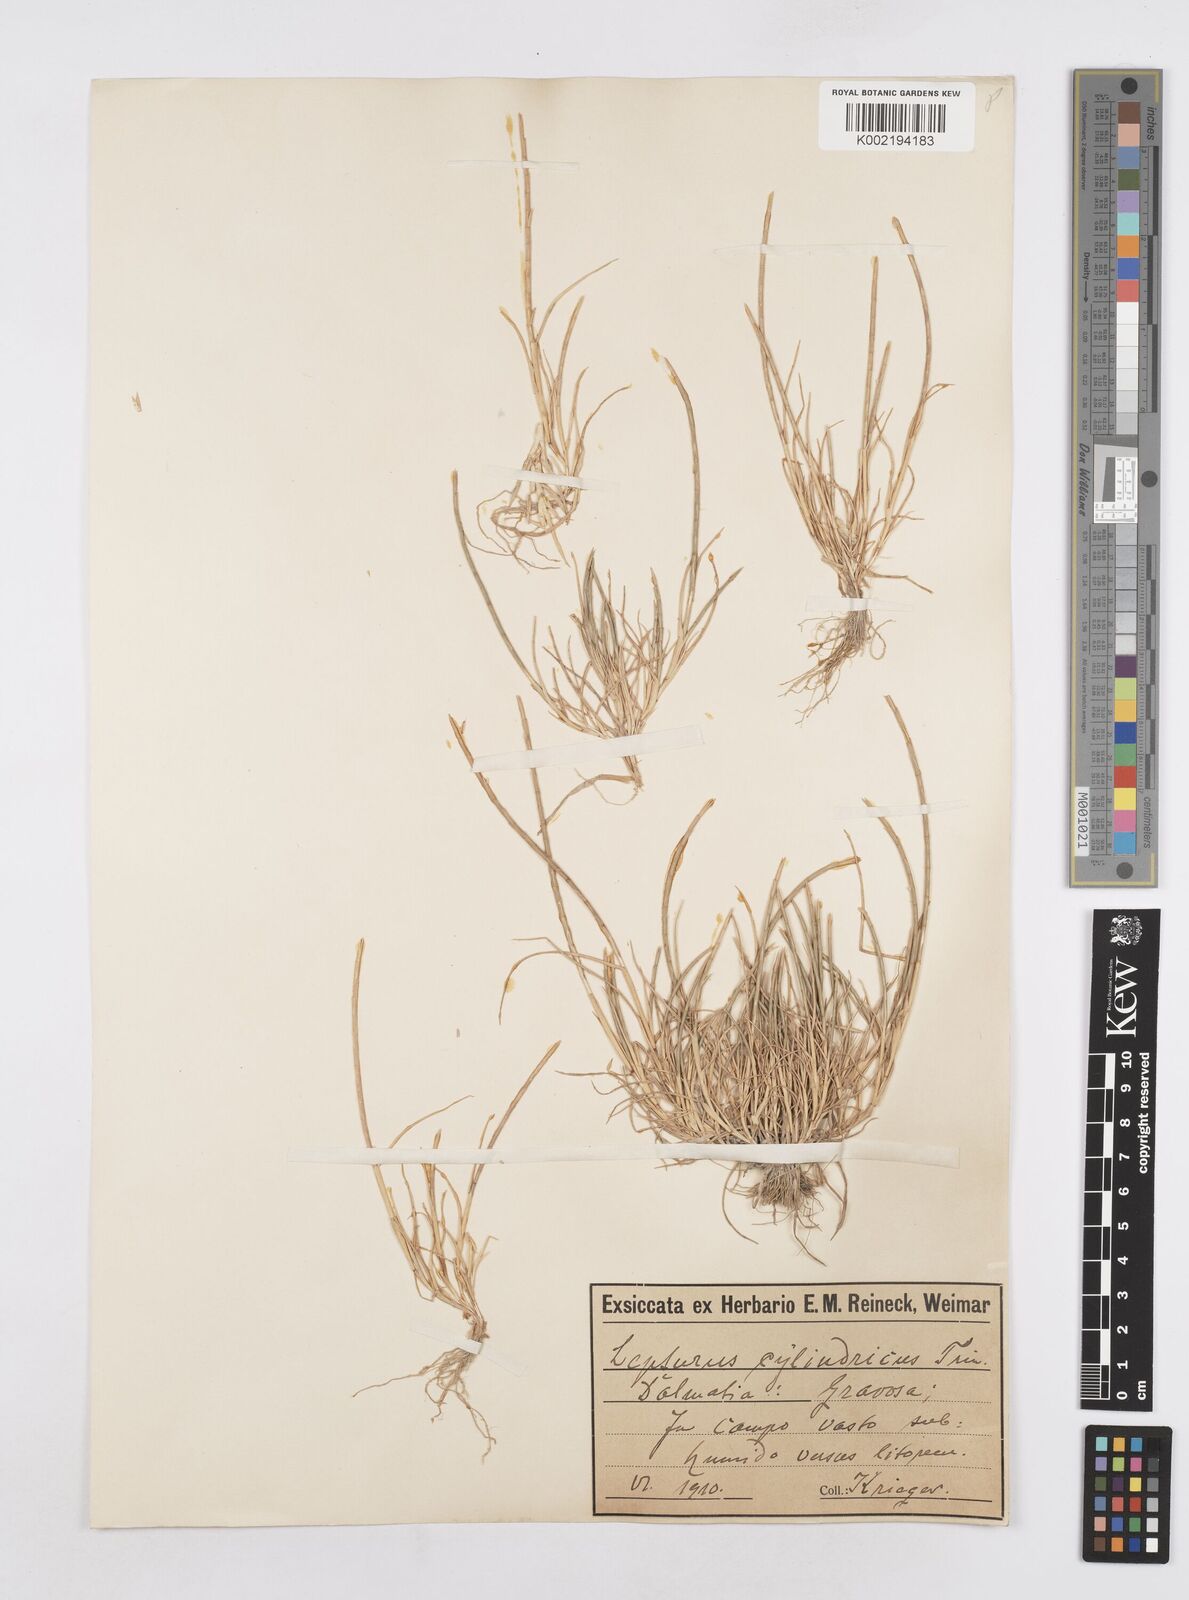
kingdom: Plantae
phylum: Tracheophyta
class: Liliopsida
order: Poales
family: Poaceae
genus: Parapholis
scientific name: Parapholis cylindrica
